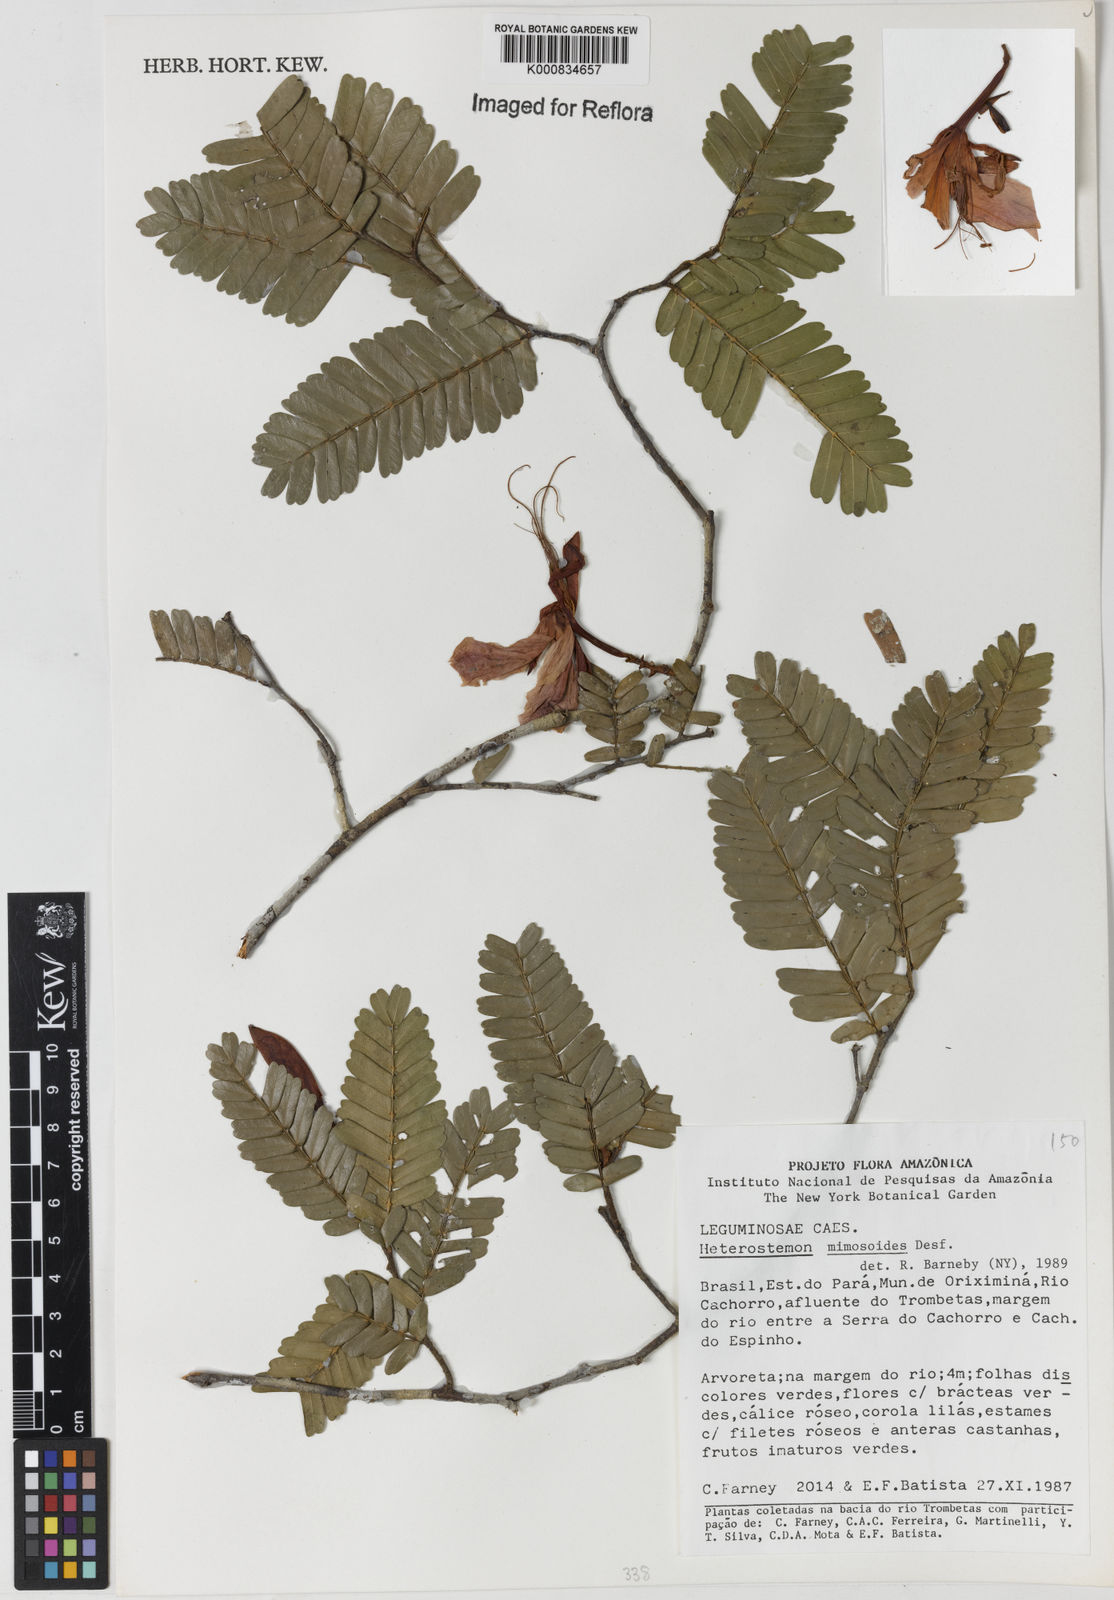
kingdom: Plantae
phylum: Tracheophyta
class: Magnoliopsida
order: Fabales
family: Fabaceae
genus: Heterostemon
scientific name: Heterostemon mimosoides
